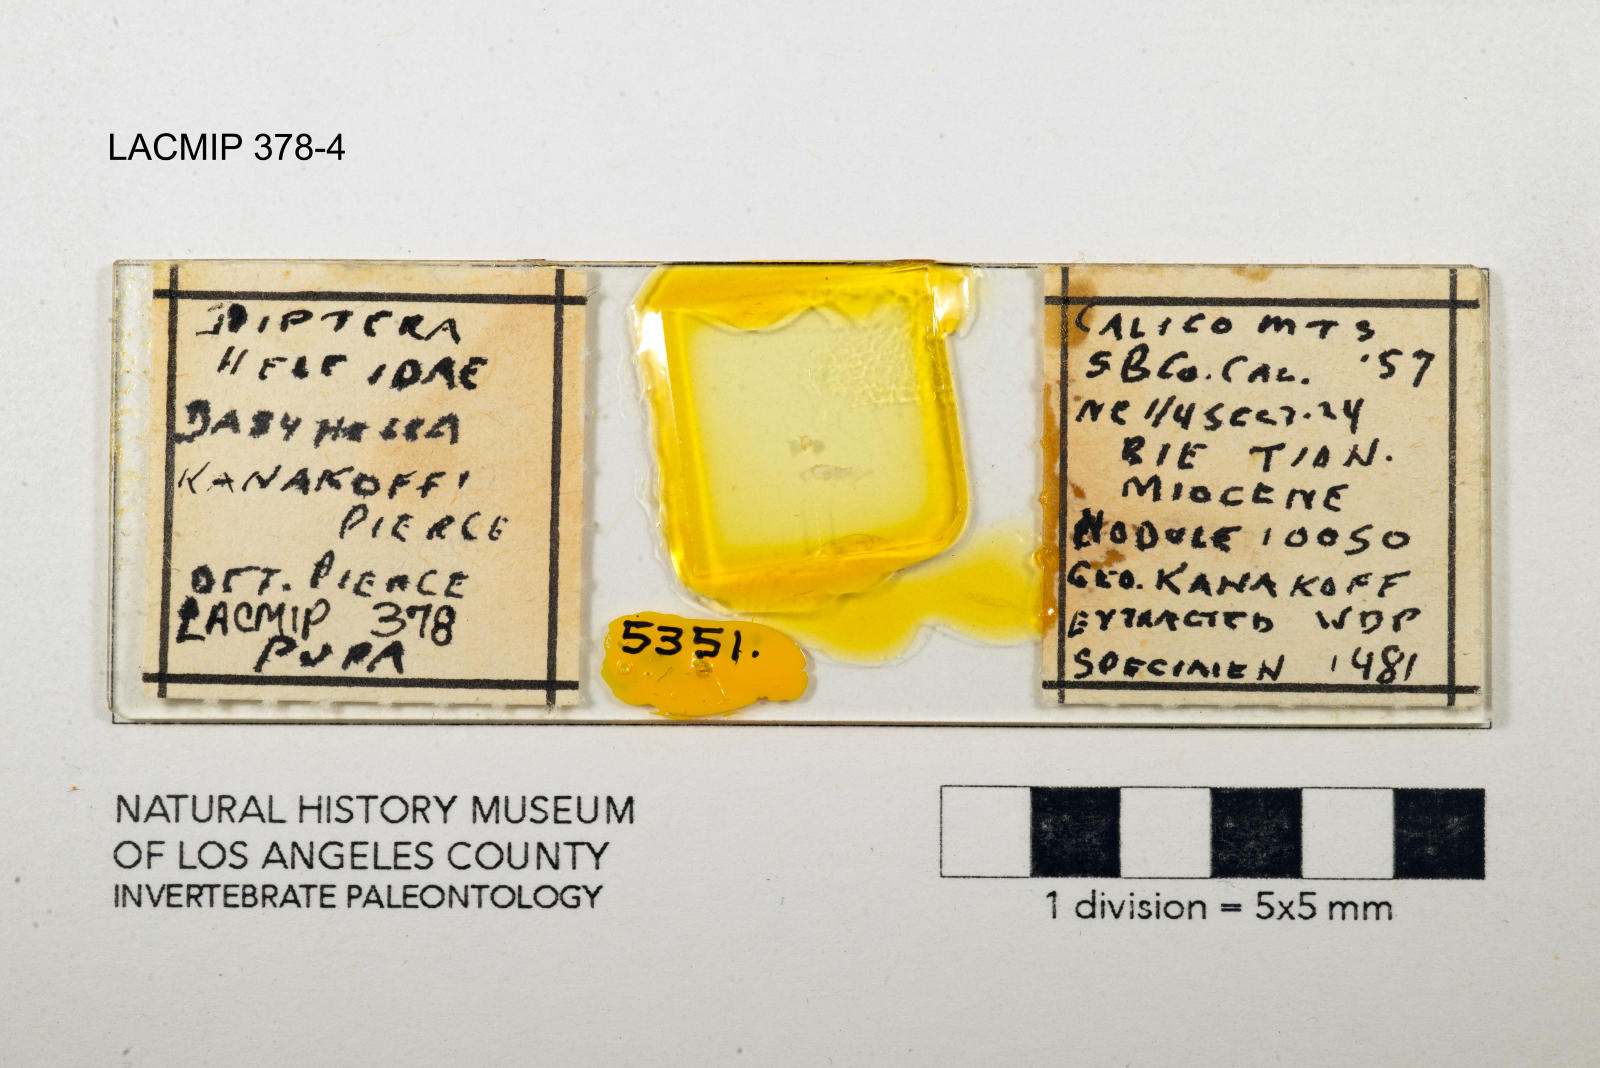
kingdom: Animalia
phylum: Arthropoda
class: Insecta
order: Diptera
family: Ceratopogonidae
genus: Dasyhelea
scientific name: Dasyhelea kanakoffi
